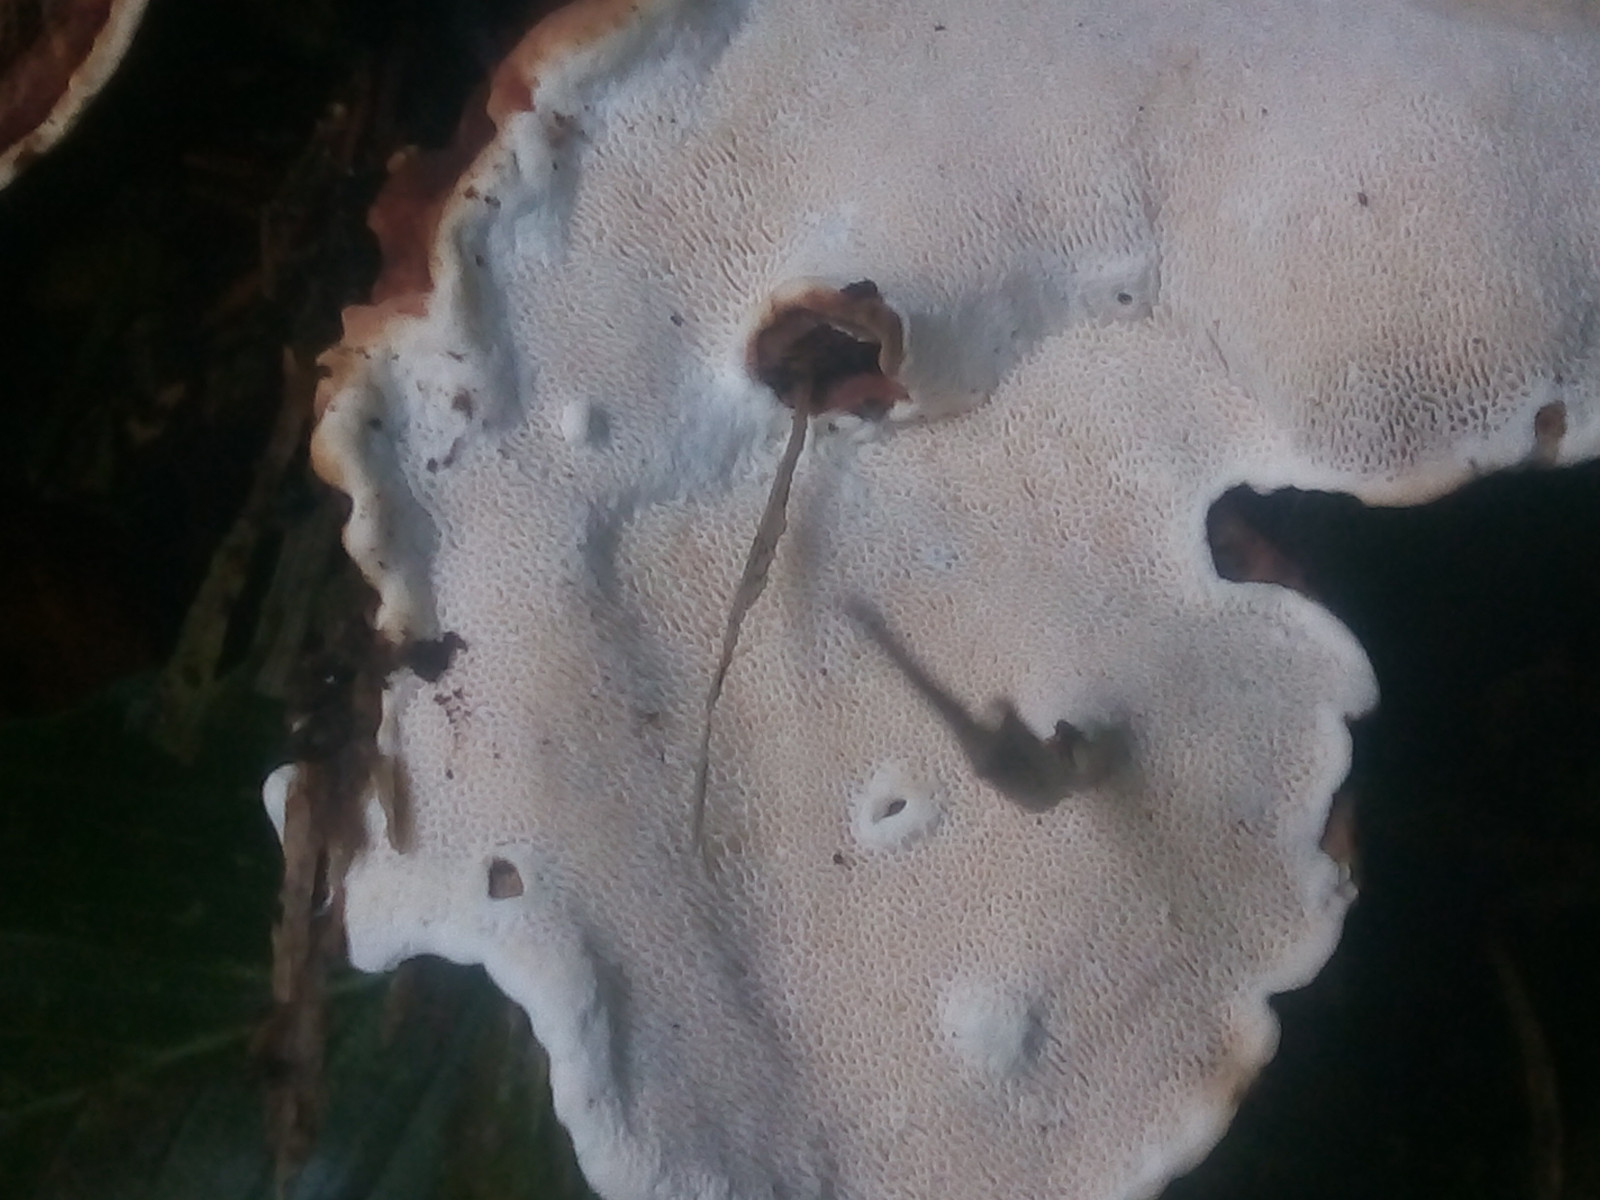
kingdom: Fungi
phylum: Basidiomycota
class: Agaricomycetes
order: Russulales
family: Bondarzewiaceae
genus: Heterobasidion
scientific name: Heterobasidion annosum
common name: almindelig rodfordærver
